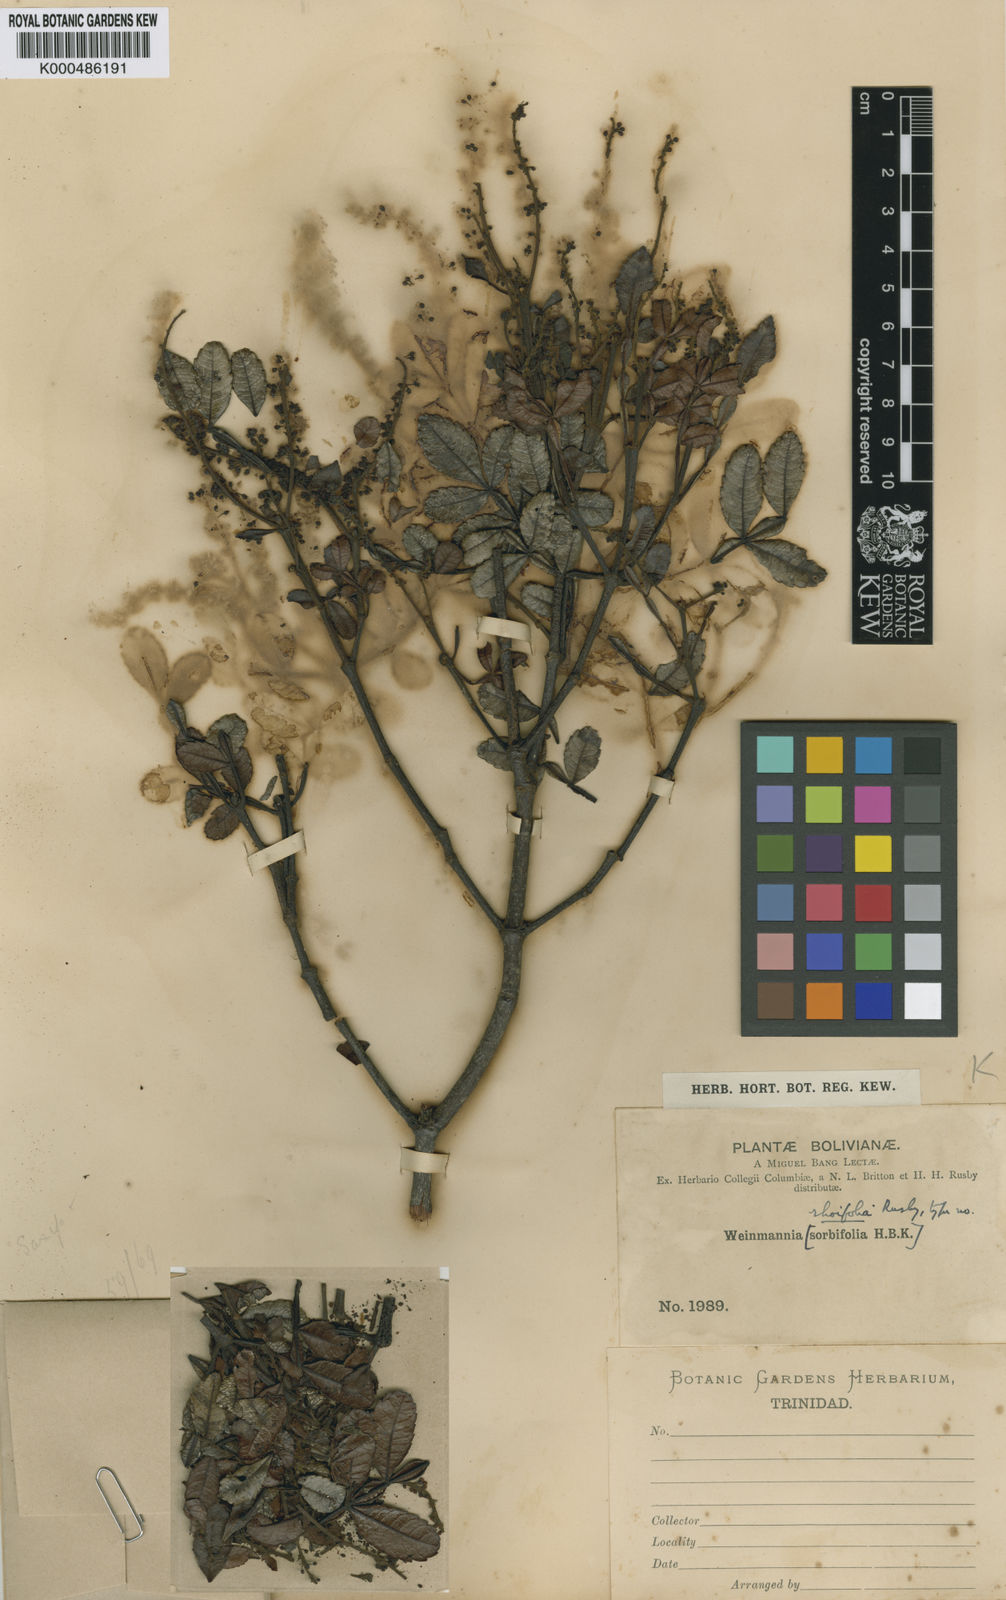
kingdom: Plantae
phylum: Tracheophyta
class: Magnoliopsida
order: Oxalidales
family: Cunoniaceae
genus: Weinmannia
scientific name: Weinmannia rhoifolia
